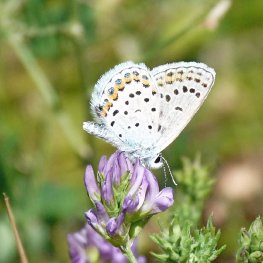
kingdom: Animalia
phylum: Arthropoda
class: Insecta
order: Lepidoptera
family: Lycaenidae
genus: Lycaeides
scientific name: Lycaeides melissa
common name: Melissa Blue
